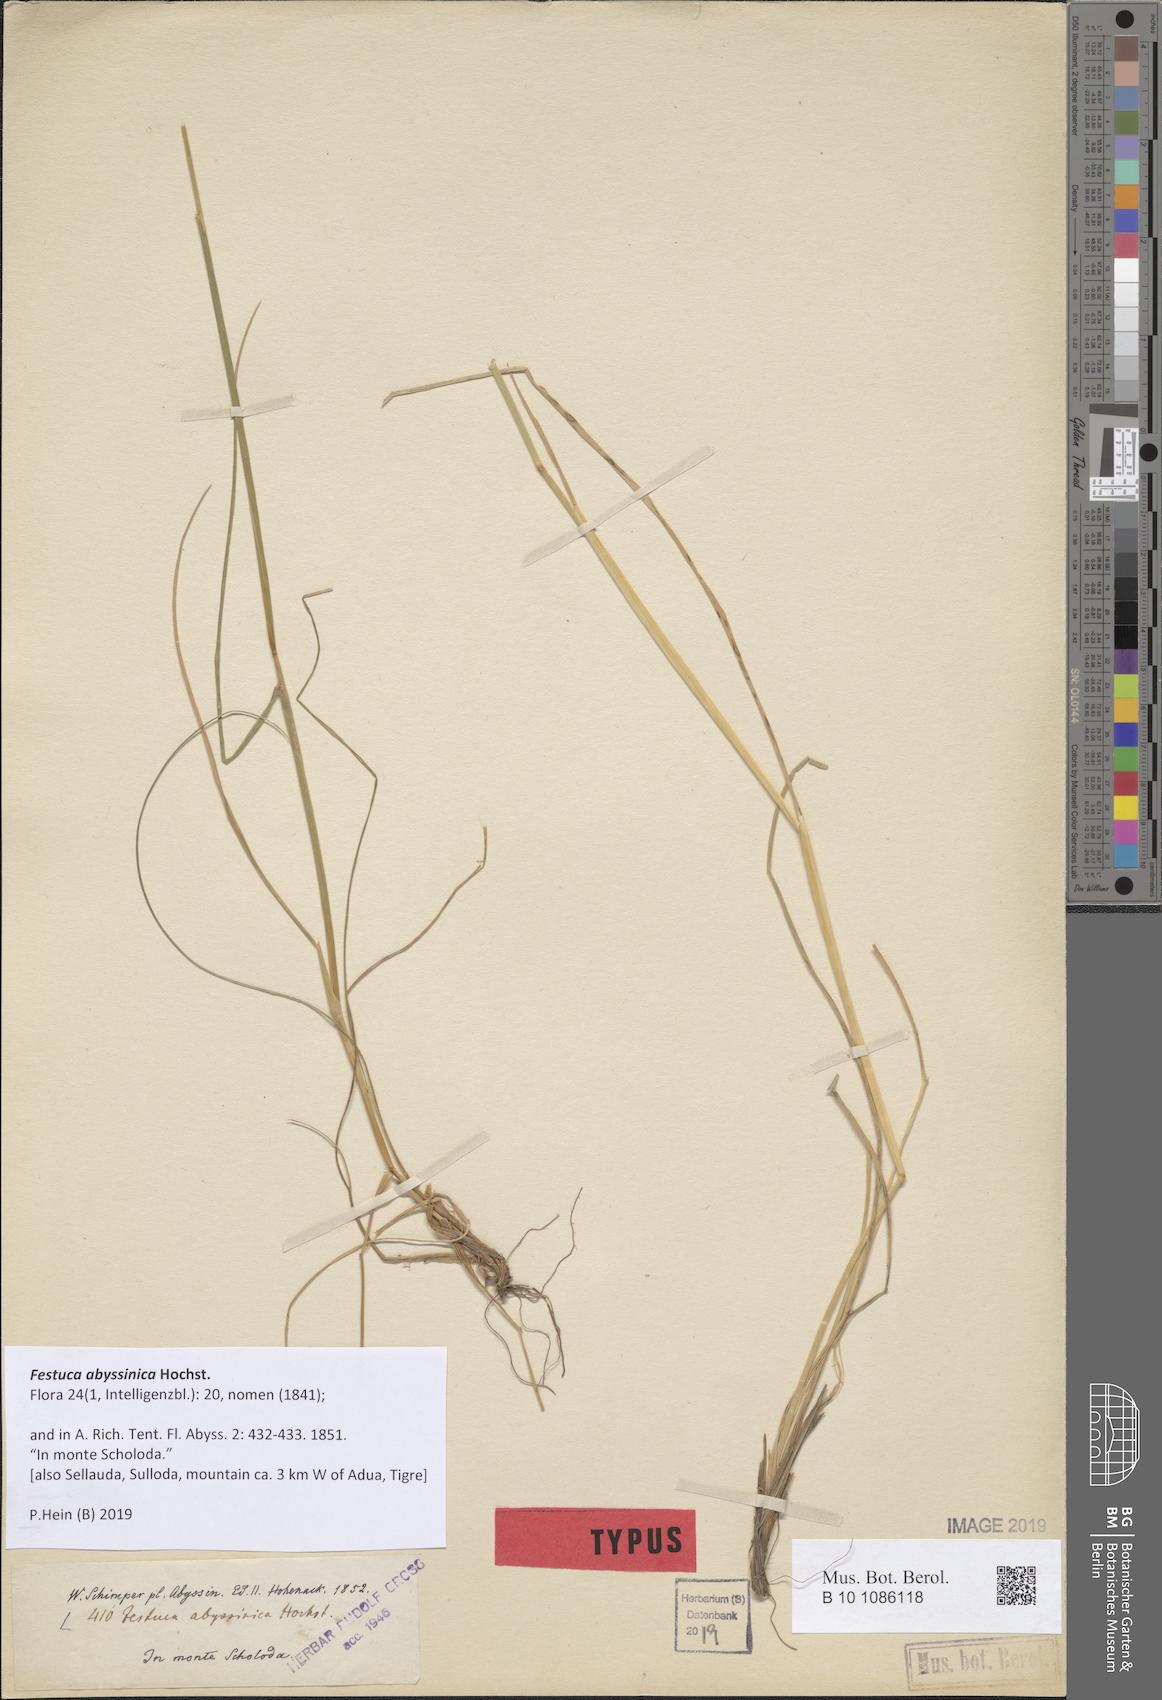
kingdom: Plantae
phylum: Tracheophyta
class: Liliopsida
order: Poales
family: Poaceae
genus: Festuca
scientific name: Festuca abyssinica
